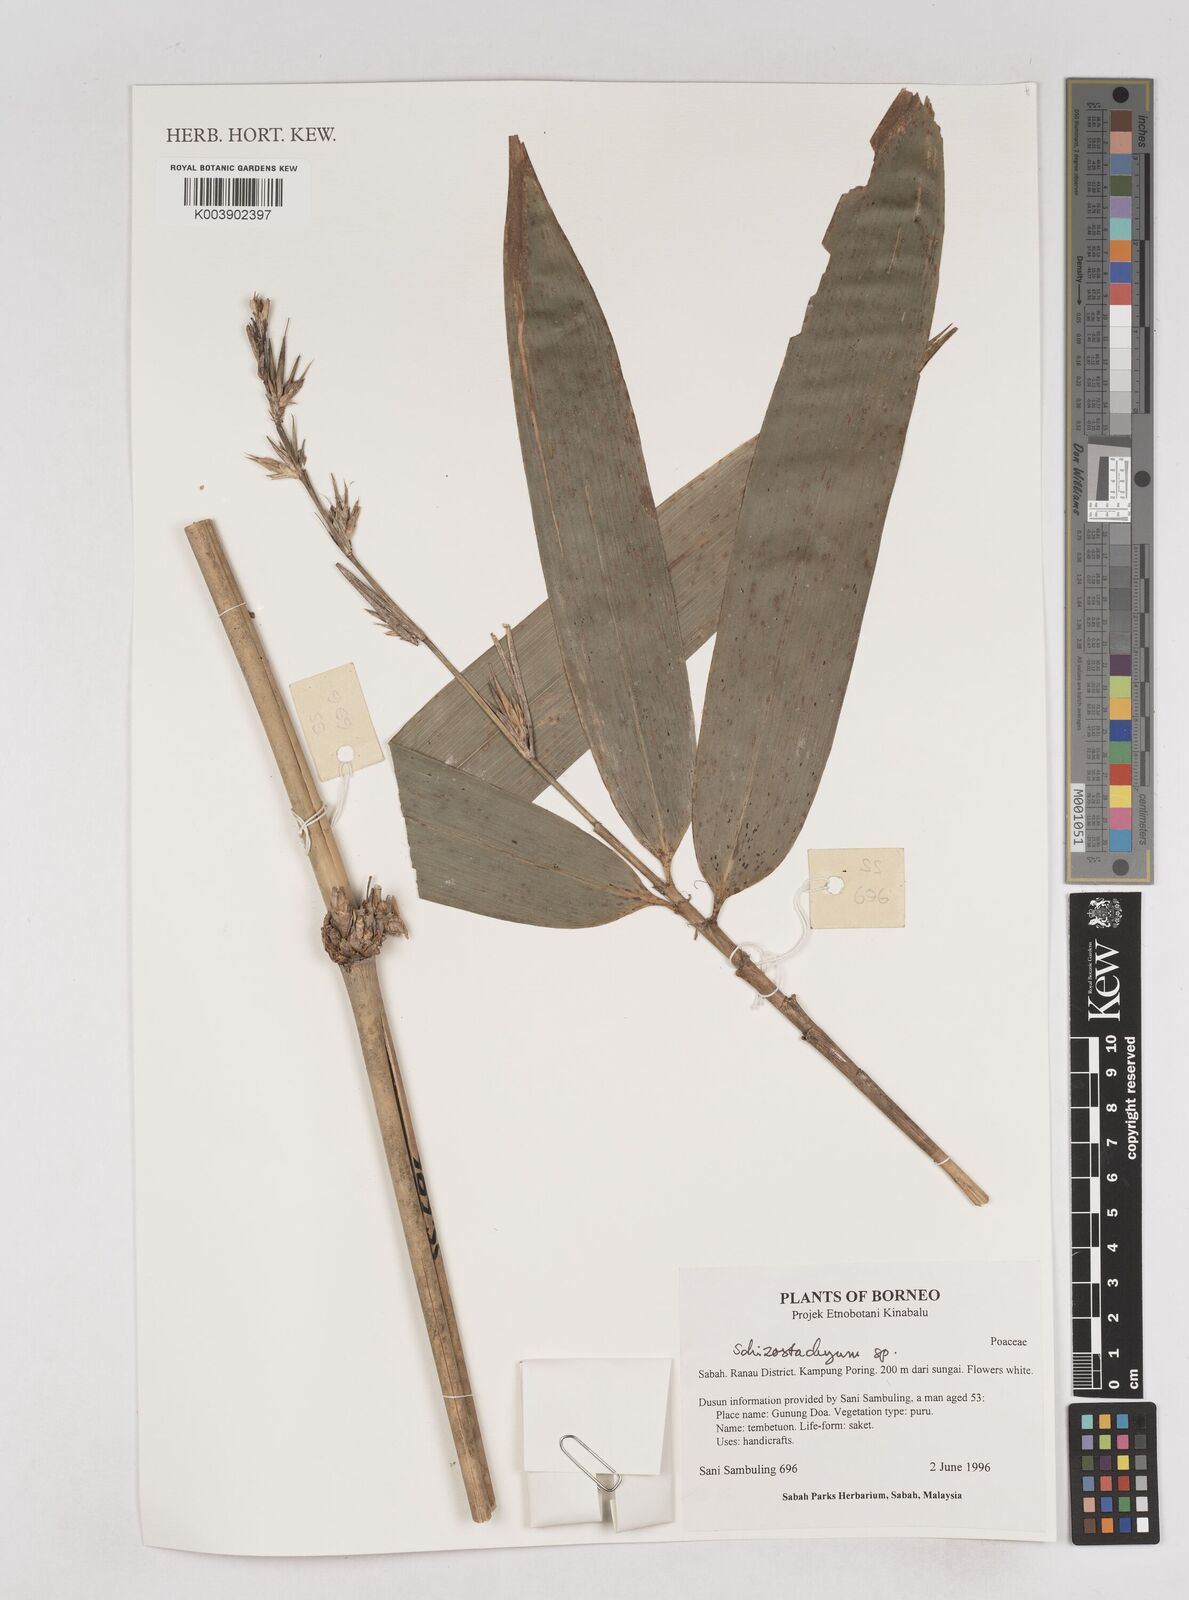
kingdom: Plantae
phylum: Tracheophyta
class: Liliopsida
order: Poales
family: Poaceae
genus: Schizostachyum
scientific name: Schizostachyum
